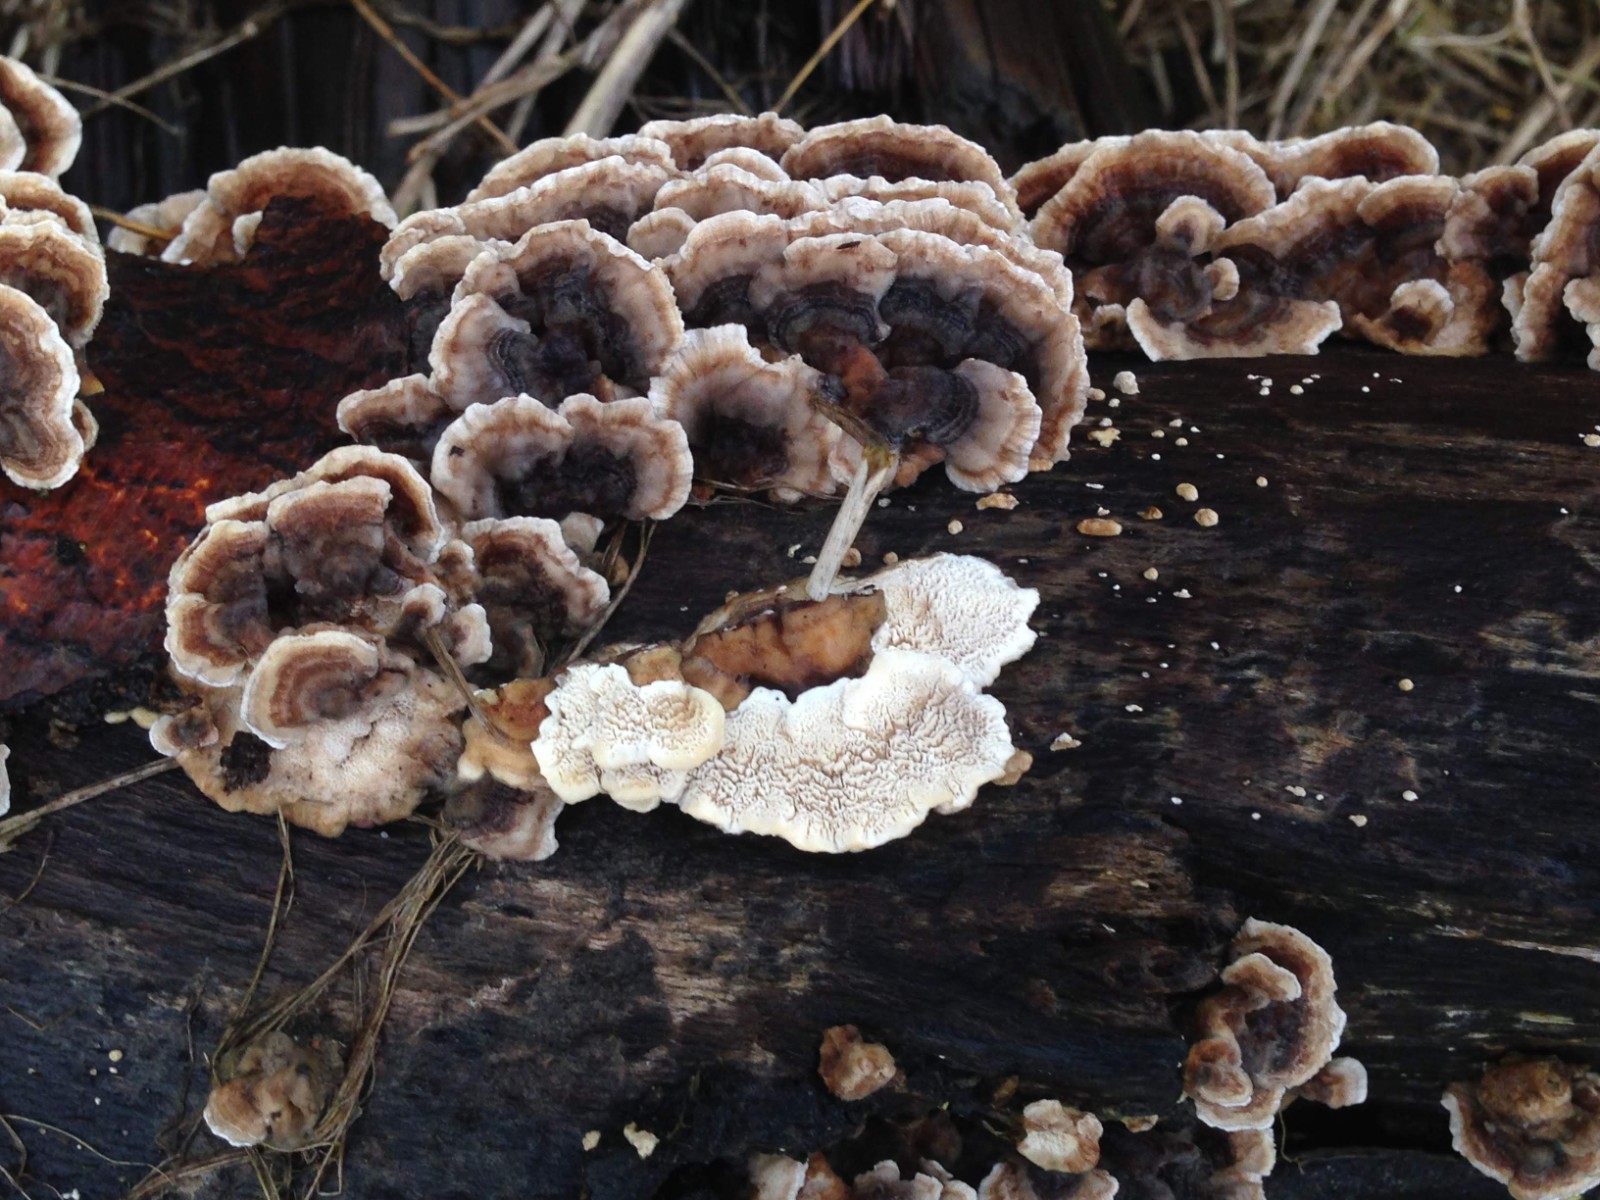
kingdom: Fungi
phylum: Basidiomycota
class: Agaricomycetes
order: Polyporales
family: Polyporaceae
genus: Trametes
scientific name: Trametes versicolor
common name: broget læderporesvamp
